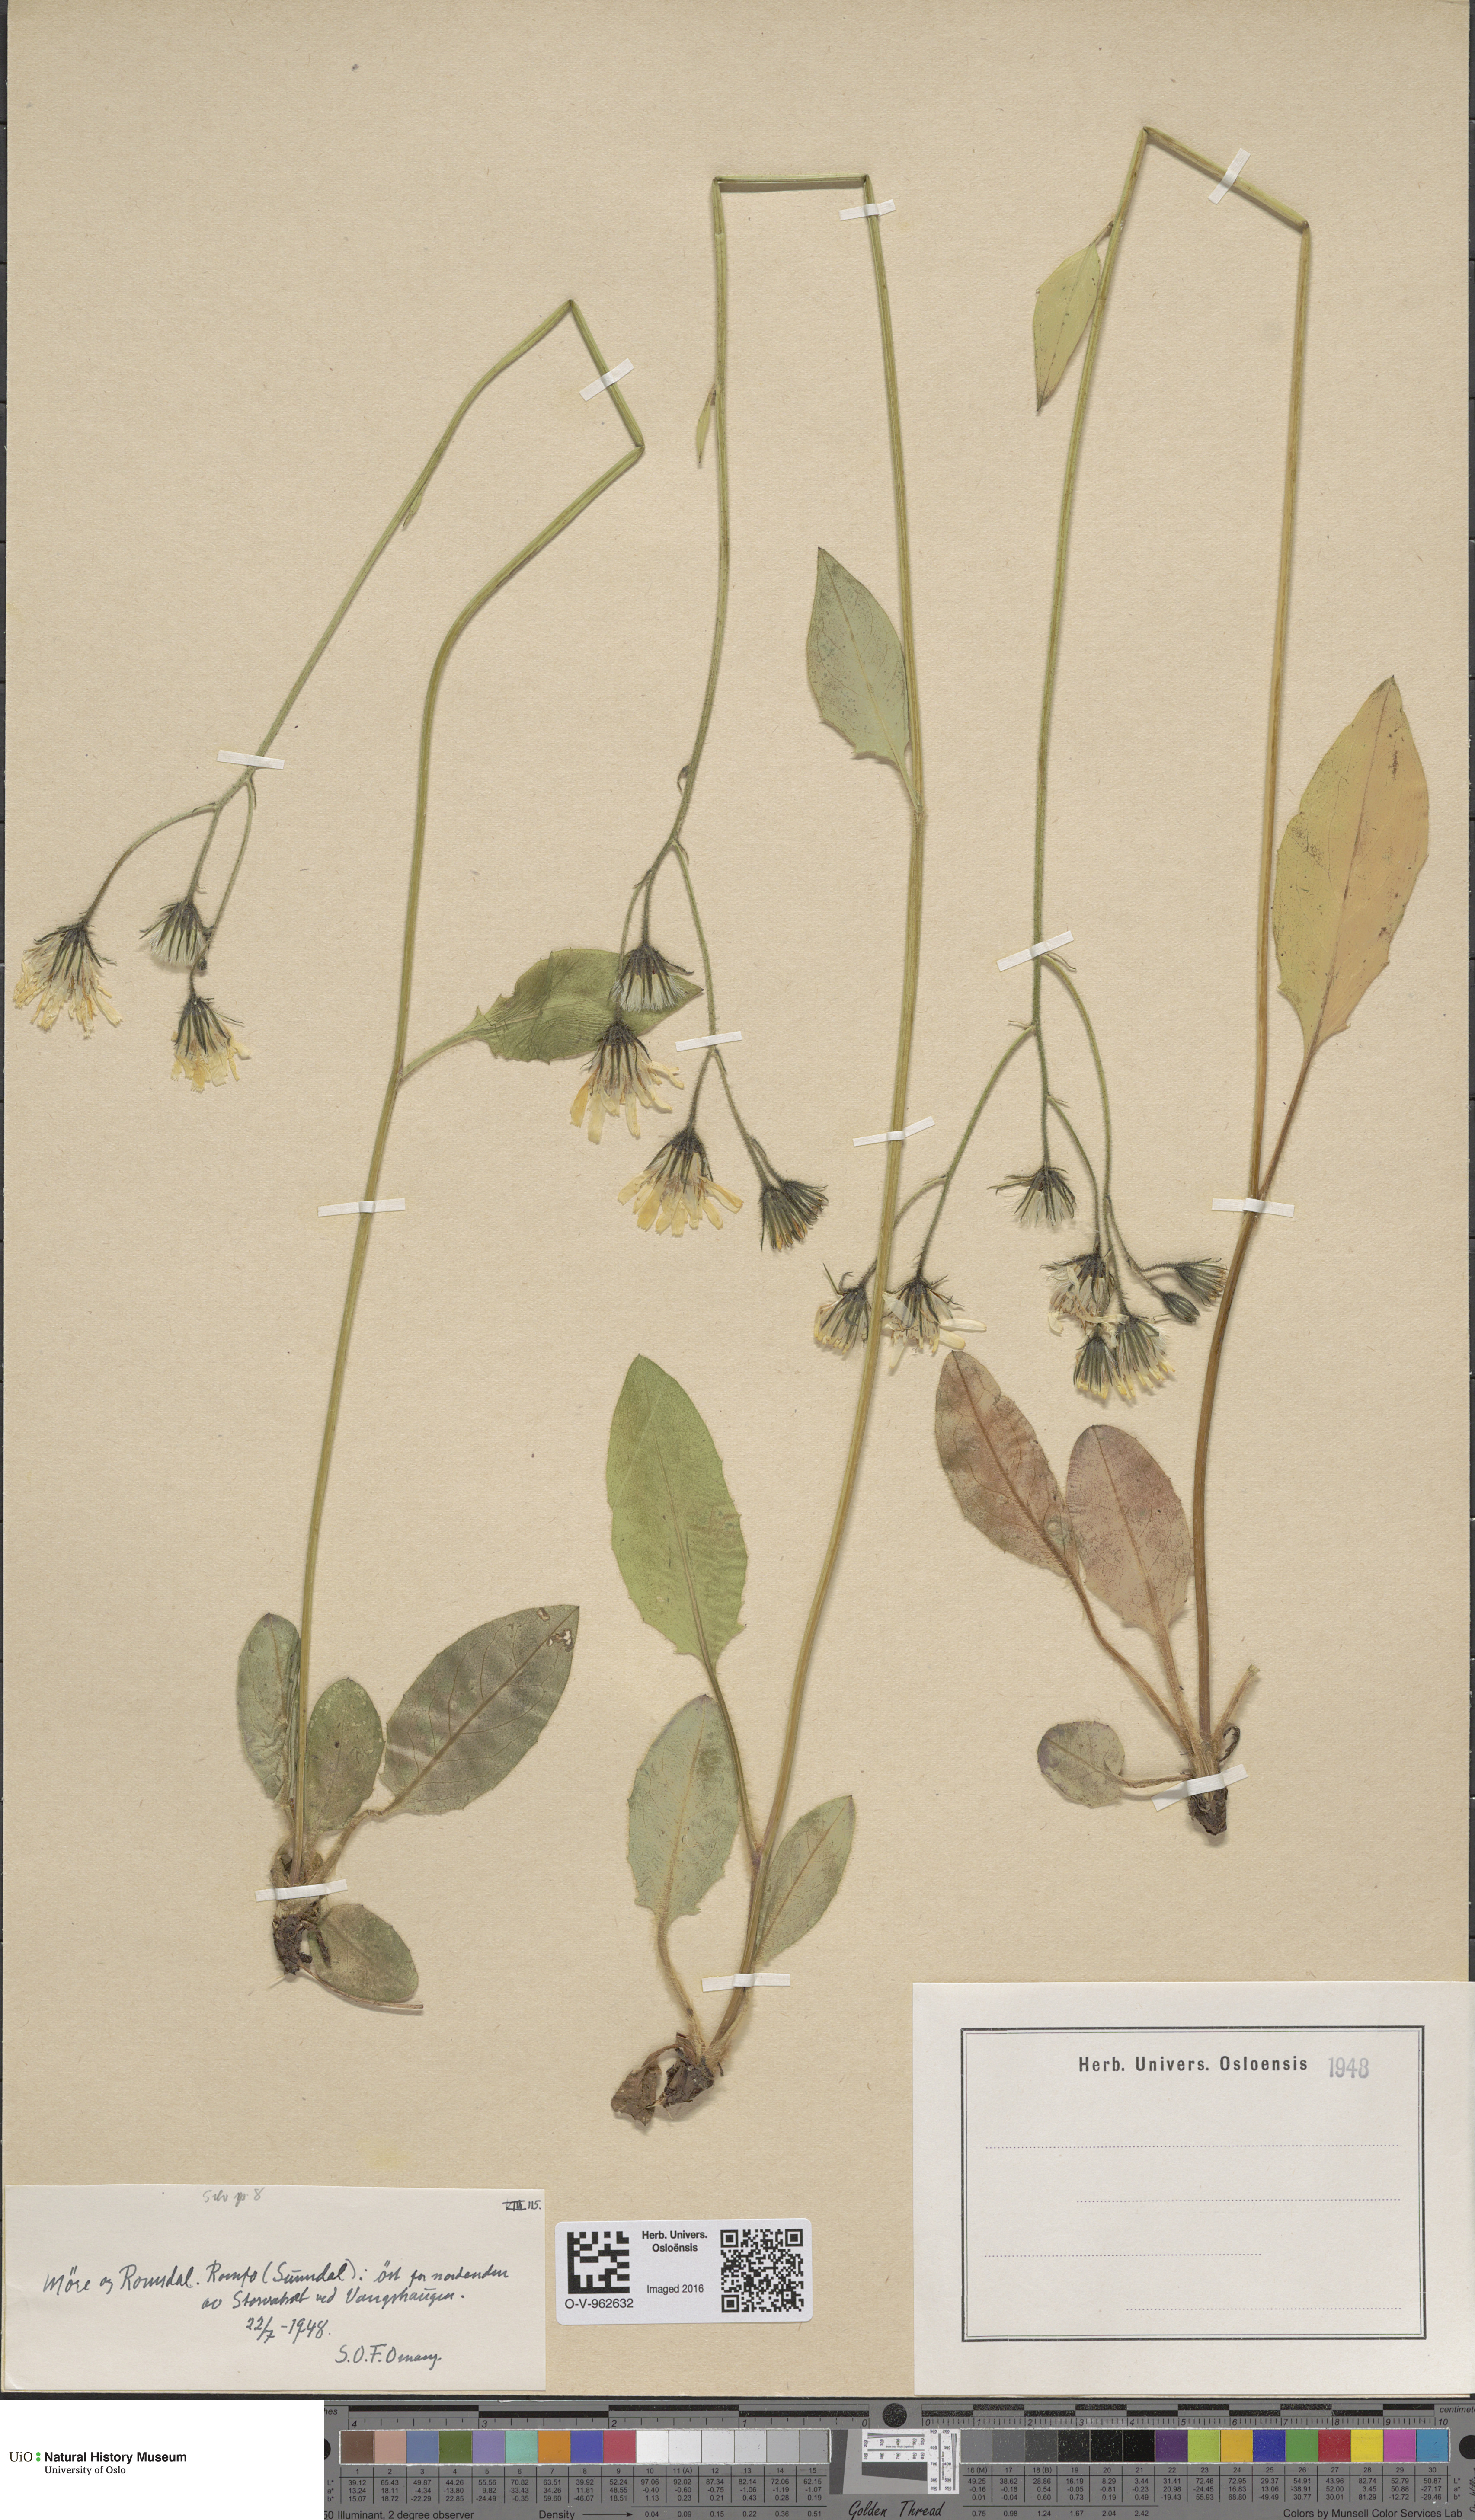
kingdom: Plantae
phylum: Tracheophyta
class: Magnoliopsida
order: Asterales
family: Asteraceae
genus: Hieracium
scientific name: Hieracium
